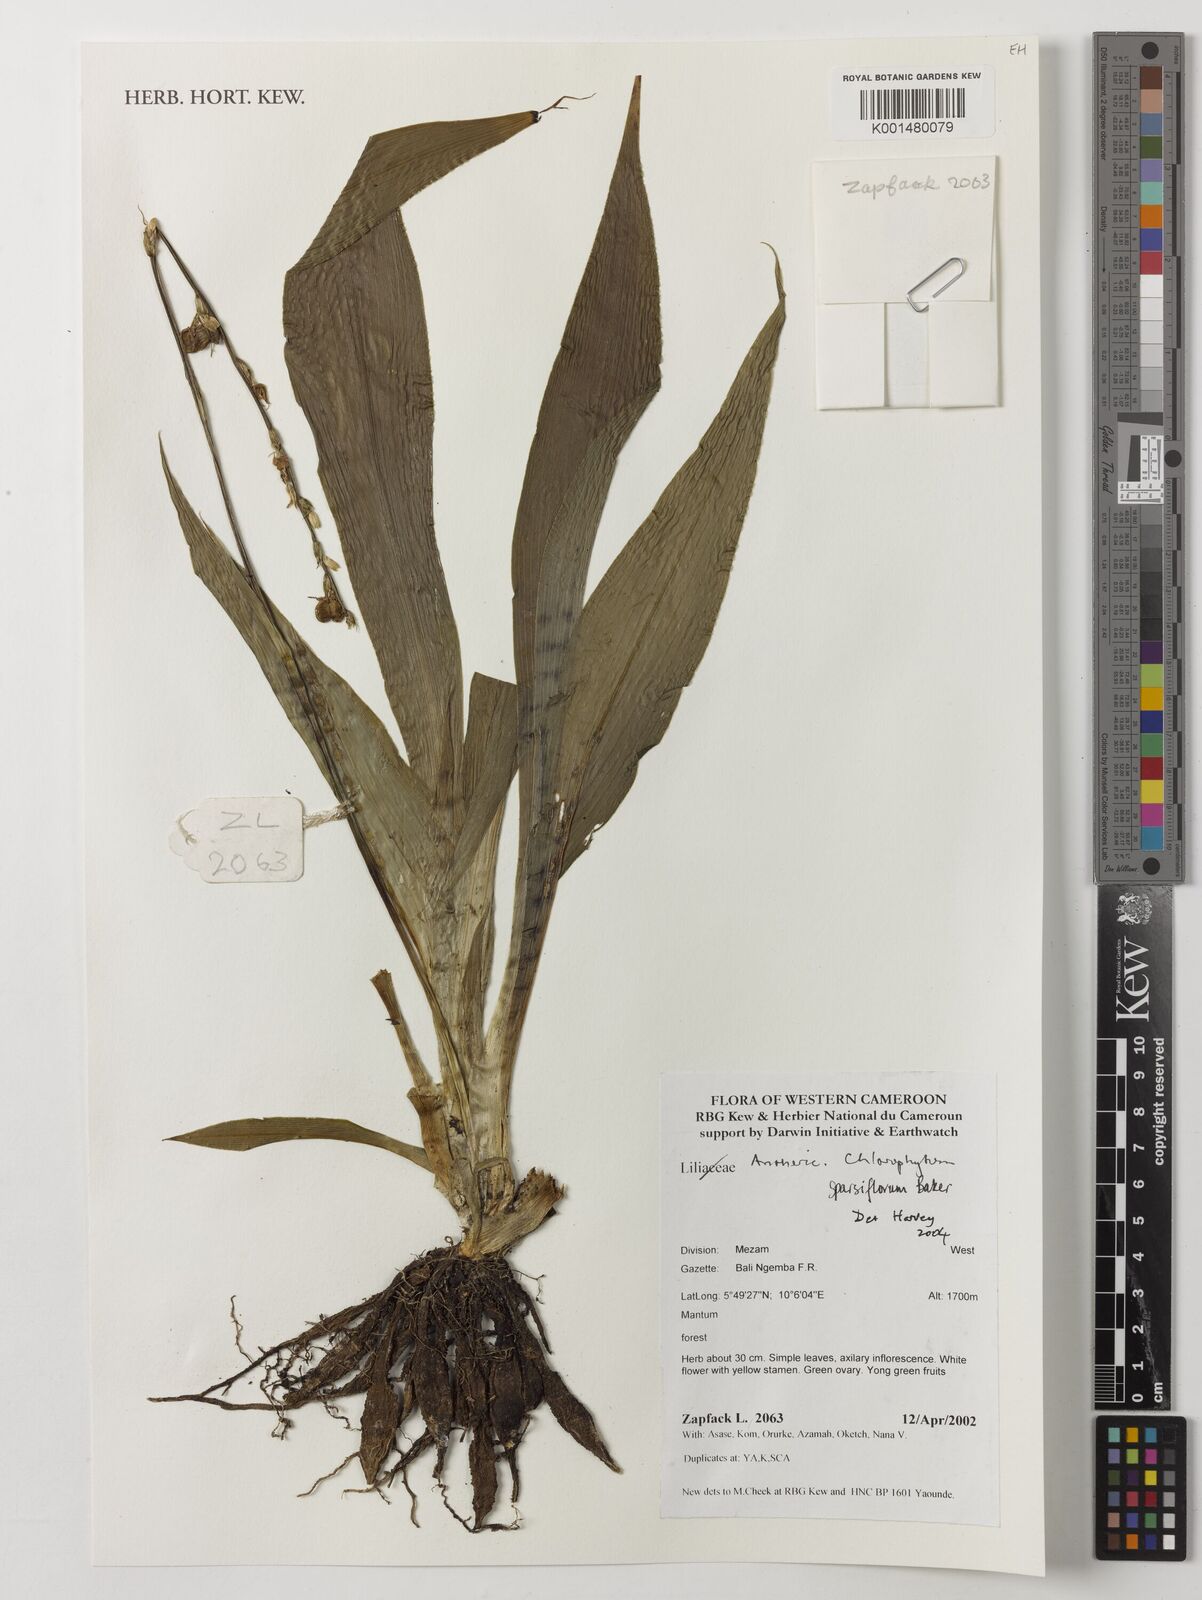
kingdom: Plantae
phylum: Tracheophyta
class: Liliopsida
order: Asparagales
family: Asparagaceae
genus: Chlorophytum
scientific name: Chlorophytum sparsiflorum
